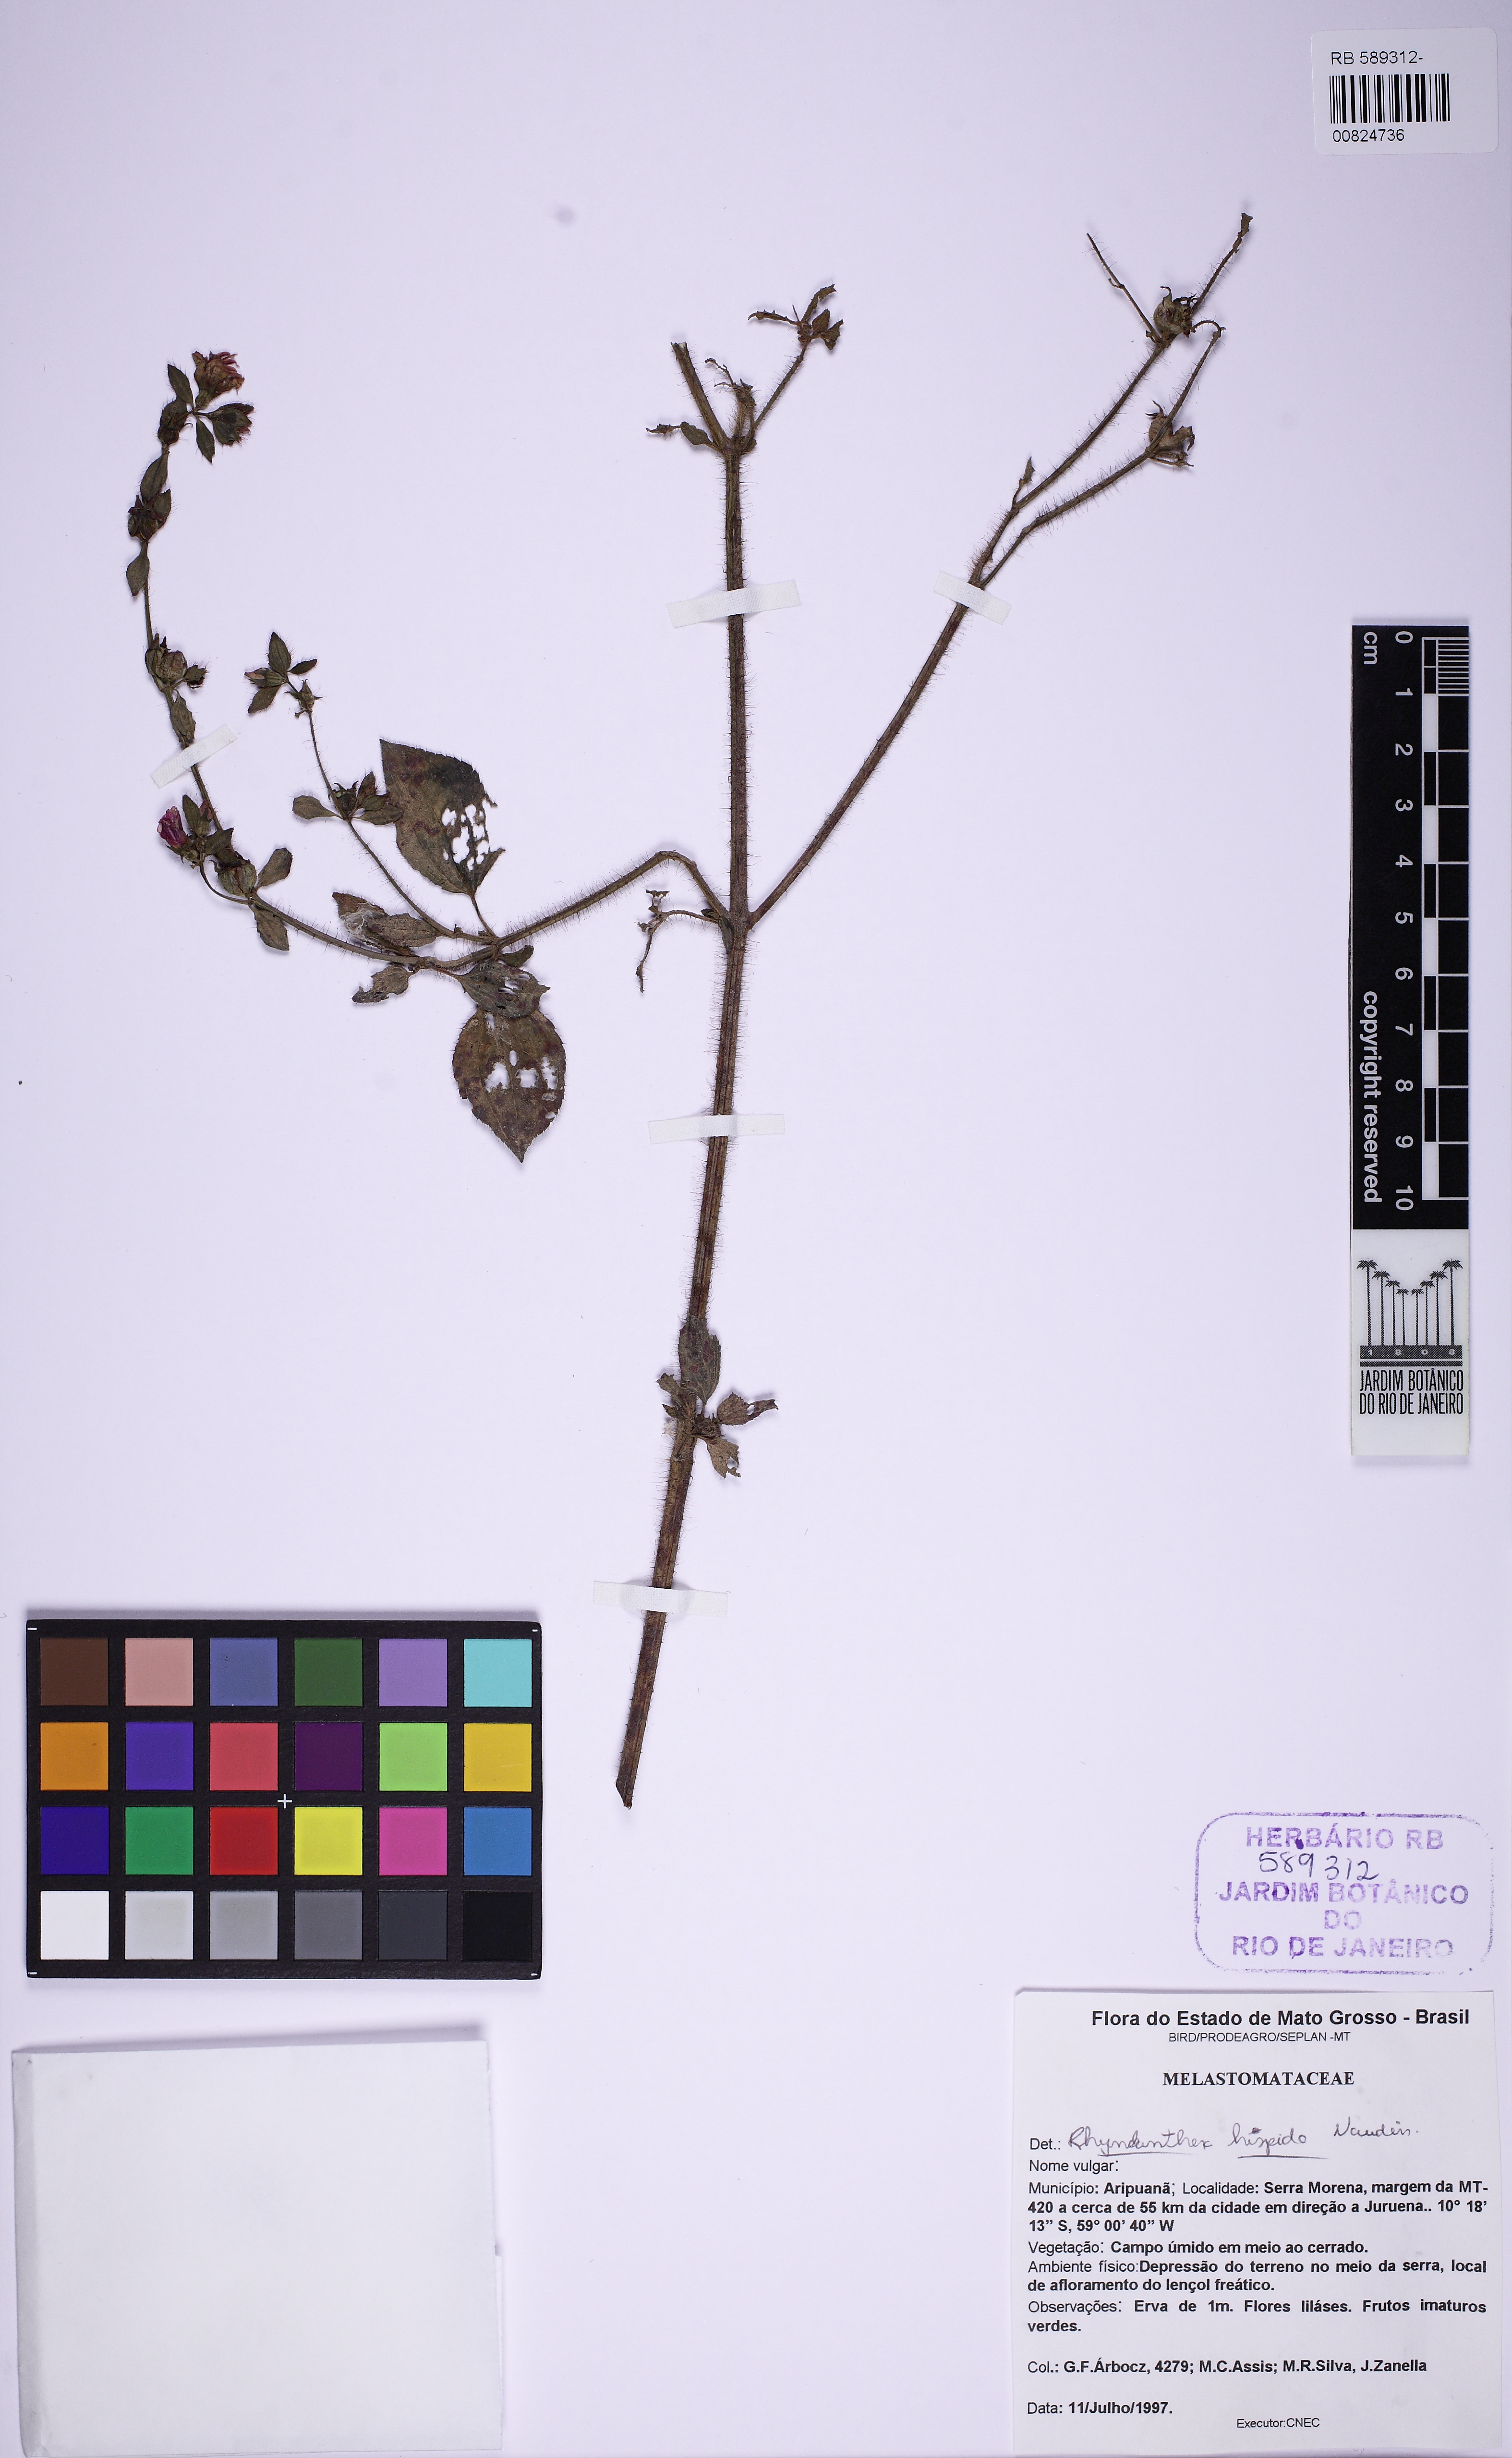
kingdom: Plantae
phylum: Tracheophyta
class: Magnoliopsida
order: Myrtales
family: Melastomataceae
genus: Rhynchanthera
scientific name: Rhynchanthera hispida
